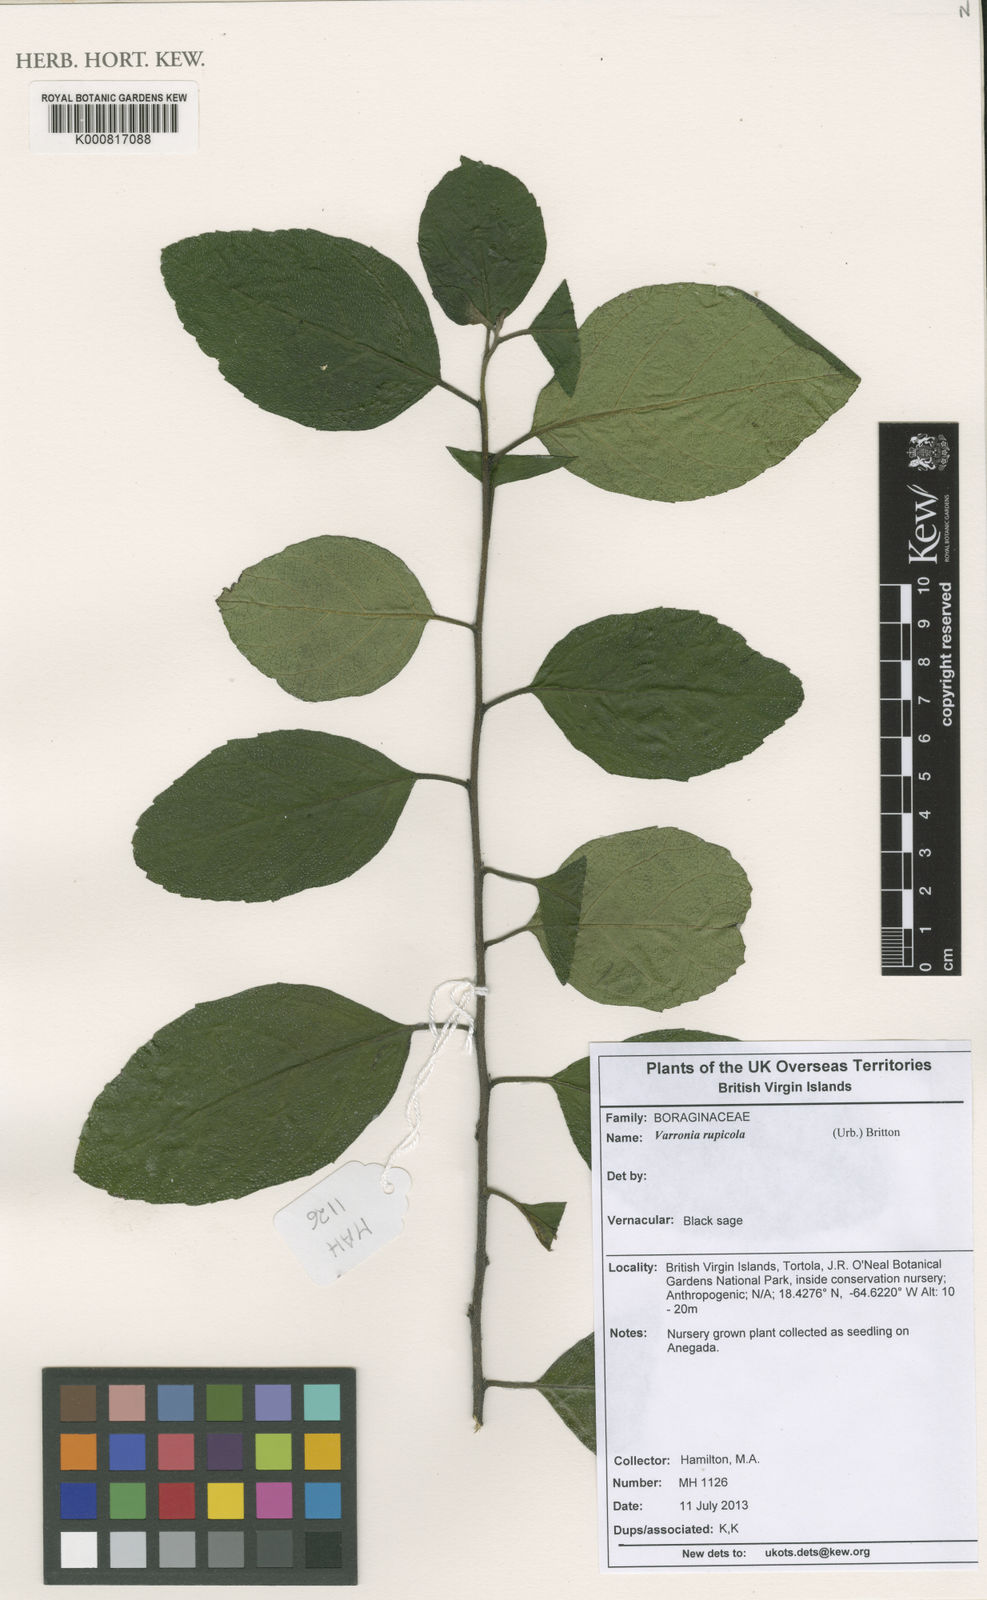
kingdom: Plantae
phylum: Tracheophyta
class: Magnoliopsida
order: Boraginales
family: Cordiaceae
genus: Varronia
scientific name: Varronia rupicola
